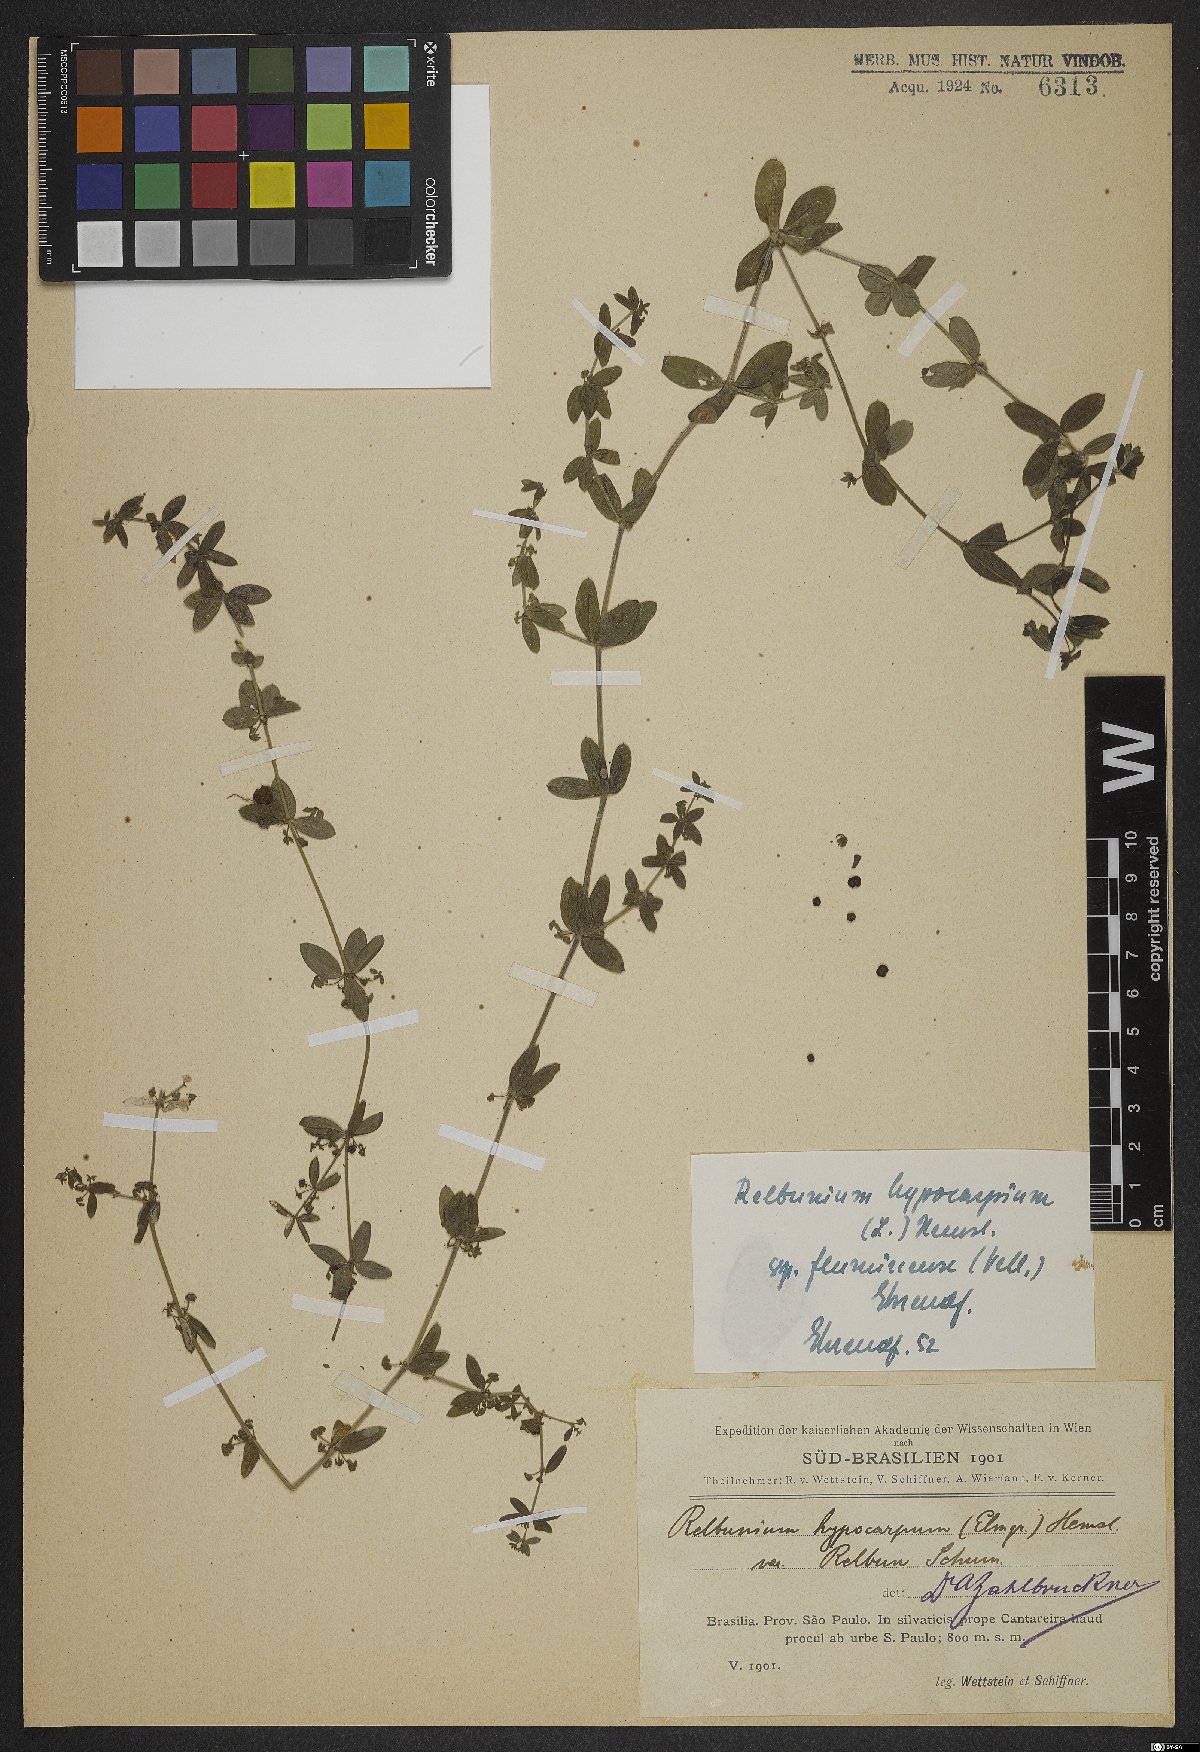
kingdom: Plantae
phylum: Tracheophyta
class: Magnoliopsida
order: Gentianales
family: Rubiaceae
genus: Galium
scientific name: Galium hypocarpium
